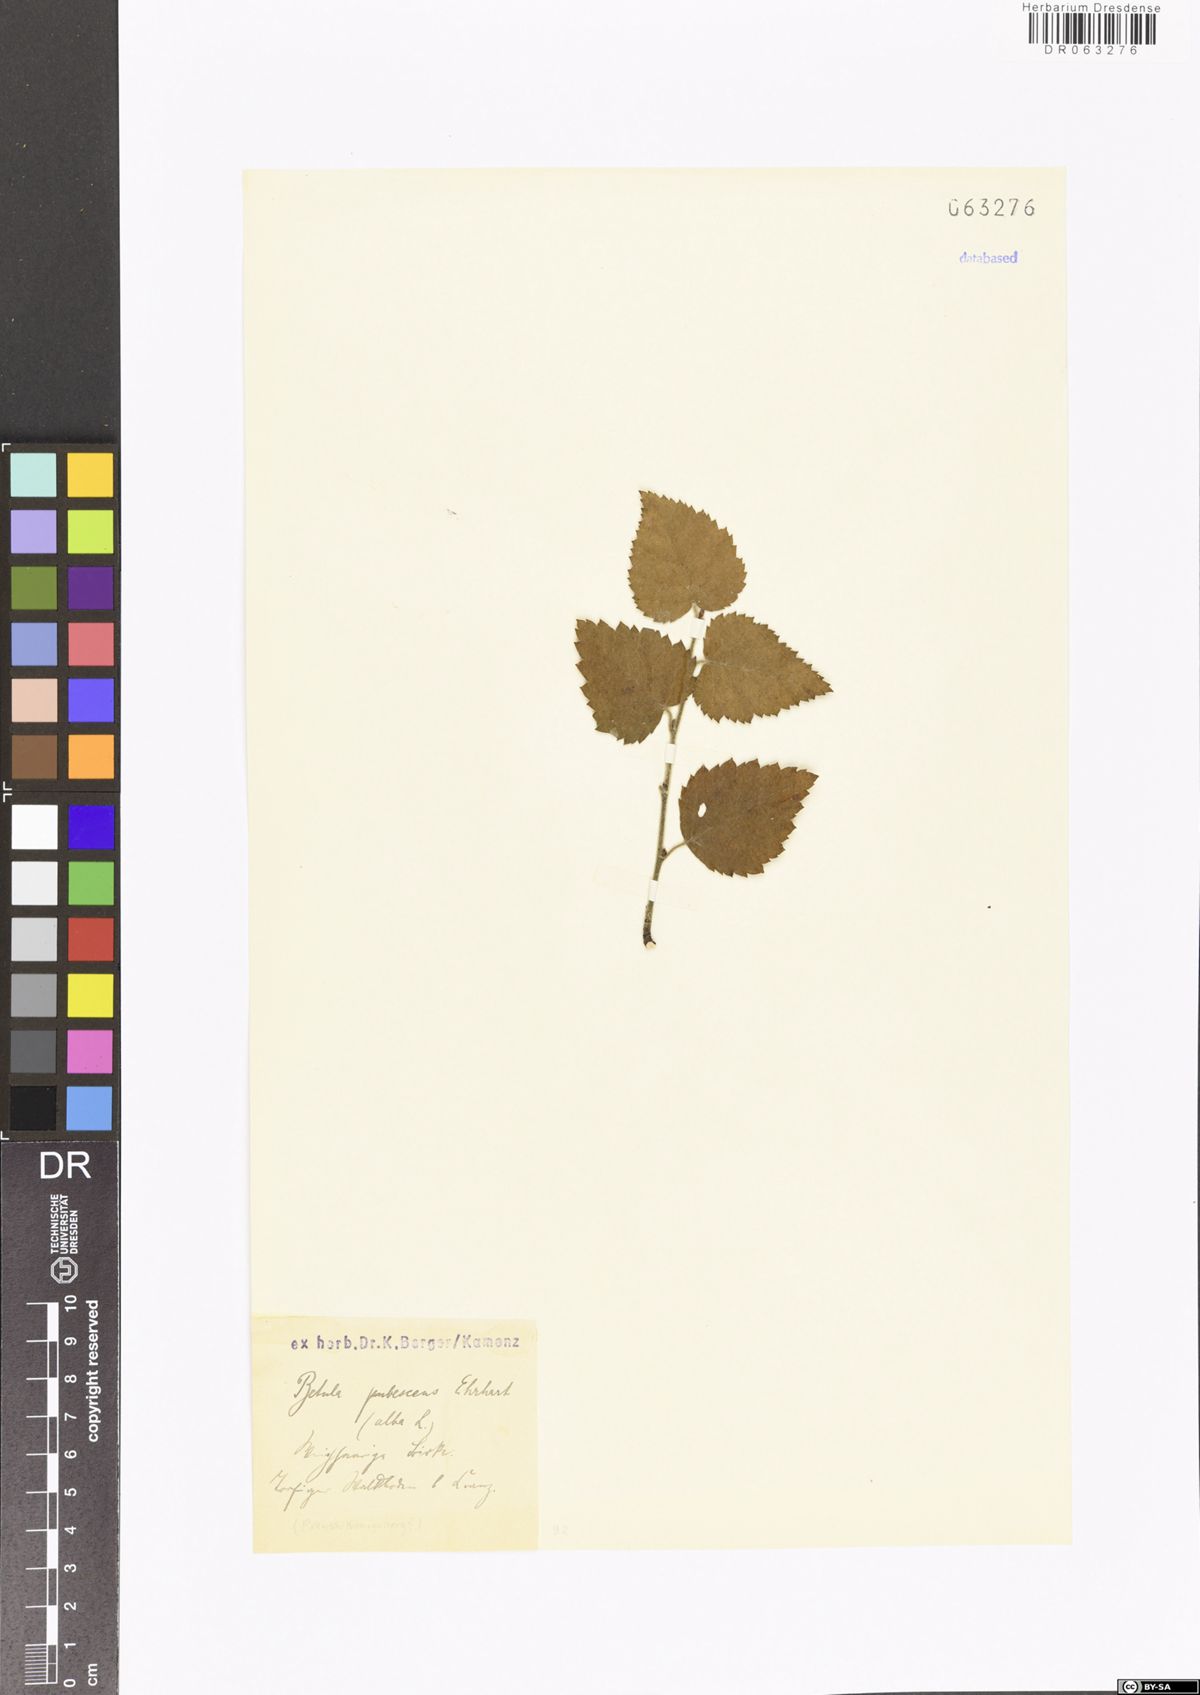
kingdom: Plantae
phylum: Tracheophyta
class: Magnoliopsida
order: Fagales
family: Betulaceae
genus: Betula
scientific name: Betula pubescens
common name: Downy birch
